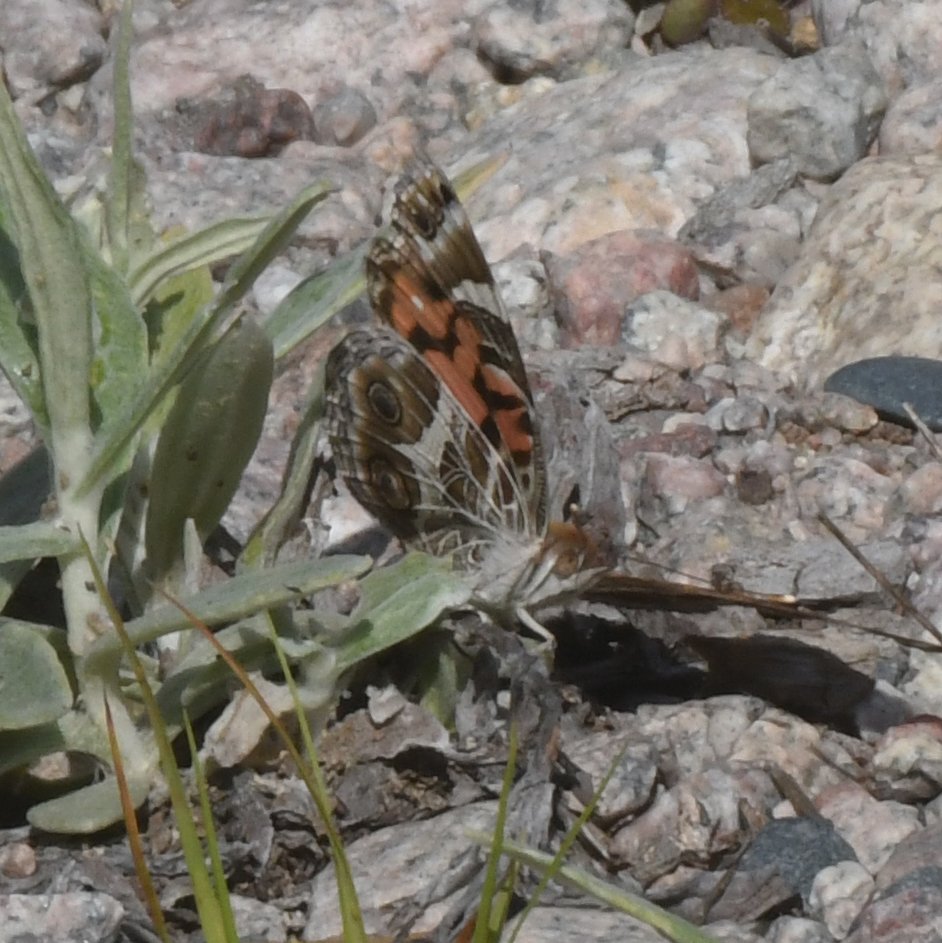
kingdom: Animalia
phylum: Arthropoda
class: Insecta
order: Lepidoptera
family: Nymphalidae
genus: Vanessa
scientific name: Vanessa virginiensis
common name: American Lady
